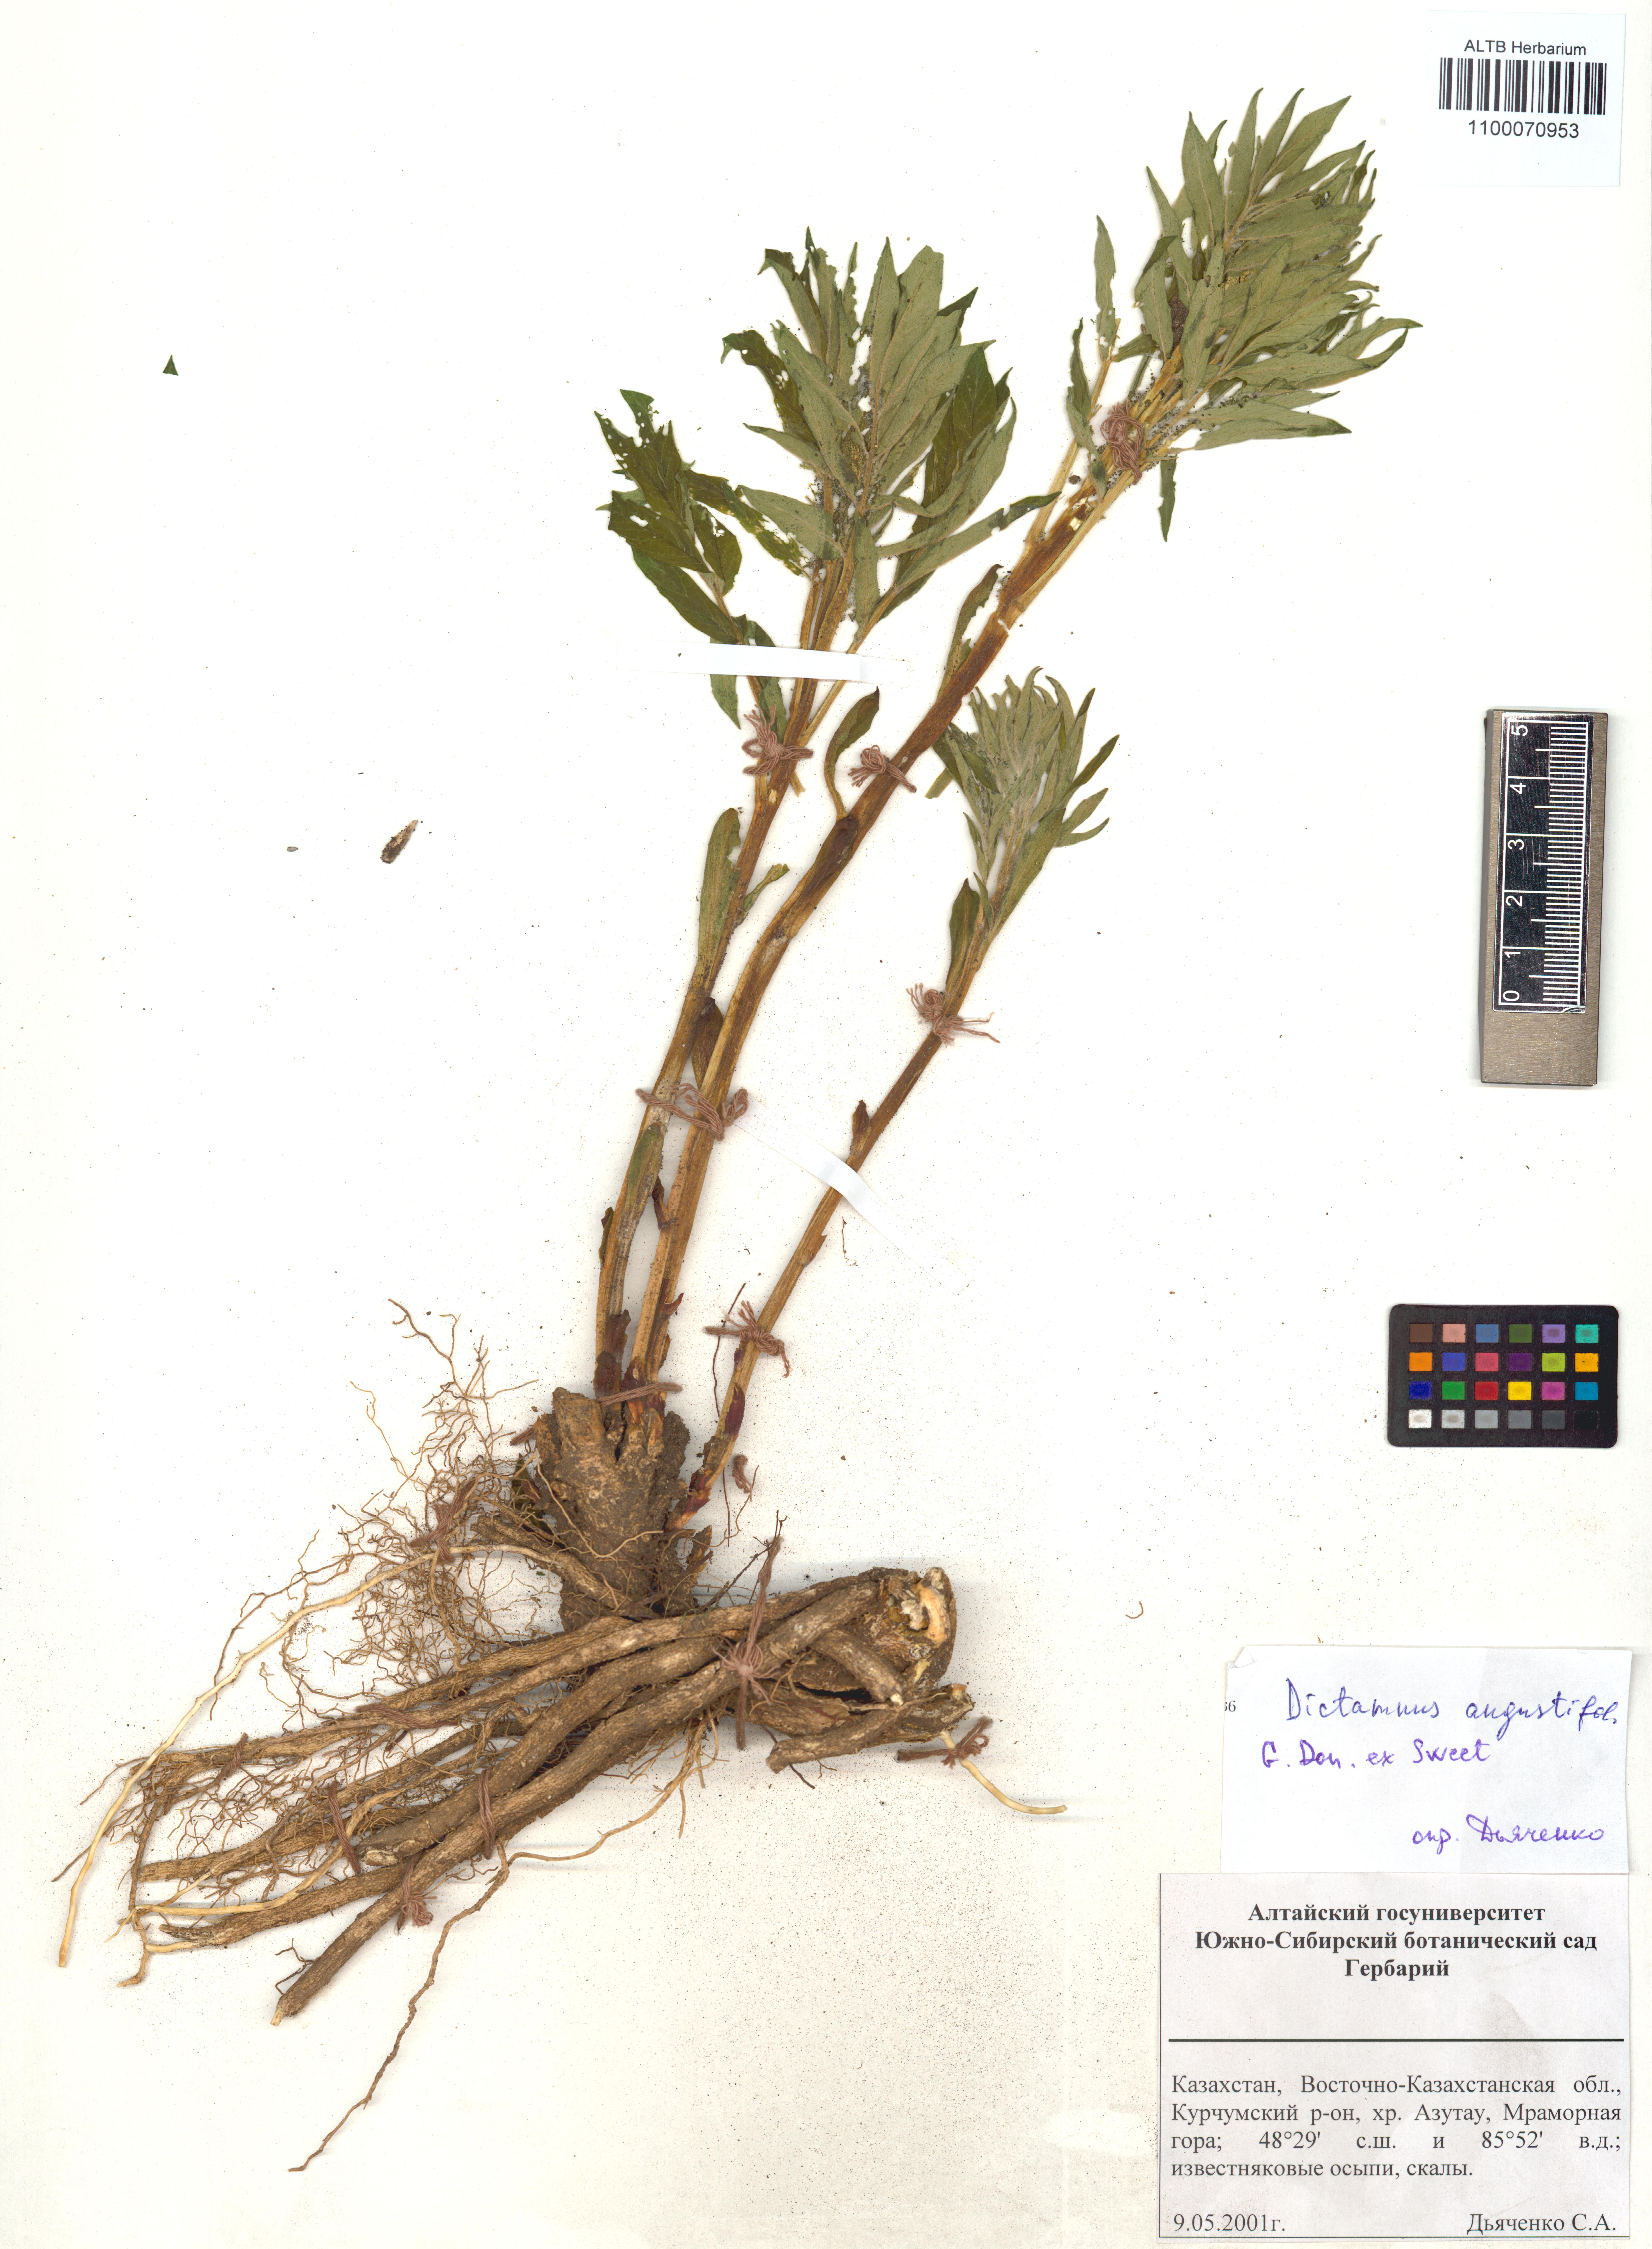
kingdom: Plantae
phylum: Tracheophyta
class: Magnoliopsida
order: Sapindales
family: Rutaceae
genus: Dictamnus
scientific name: Dictamnus albus
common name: Gasplant
